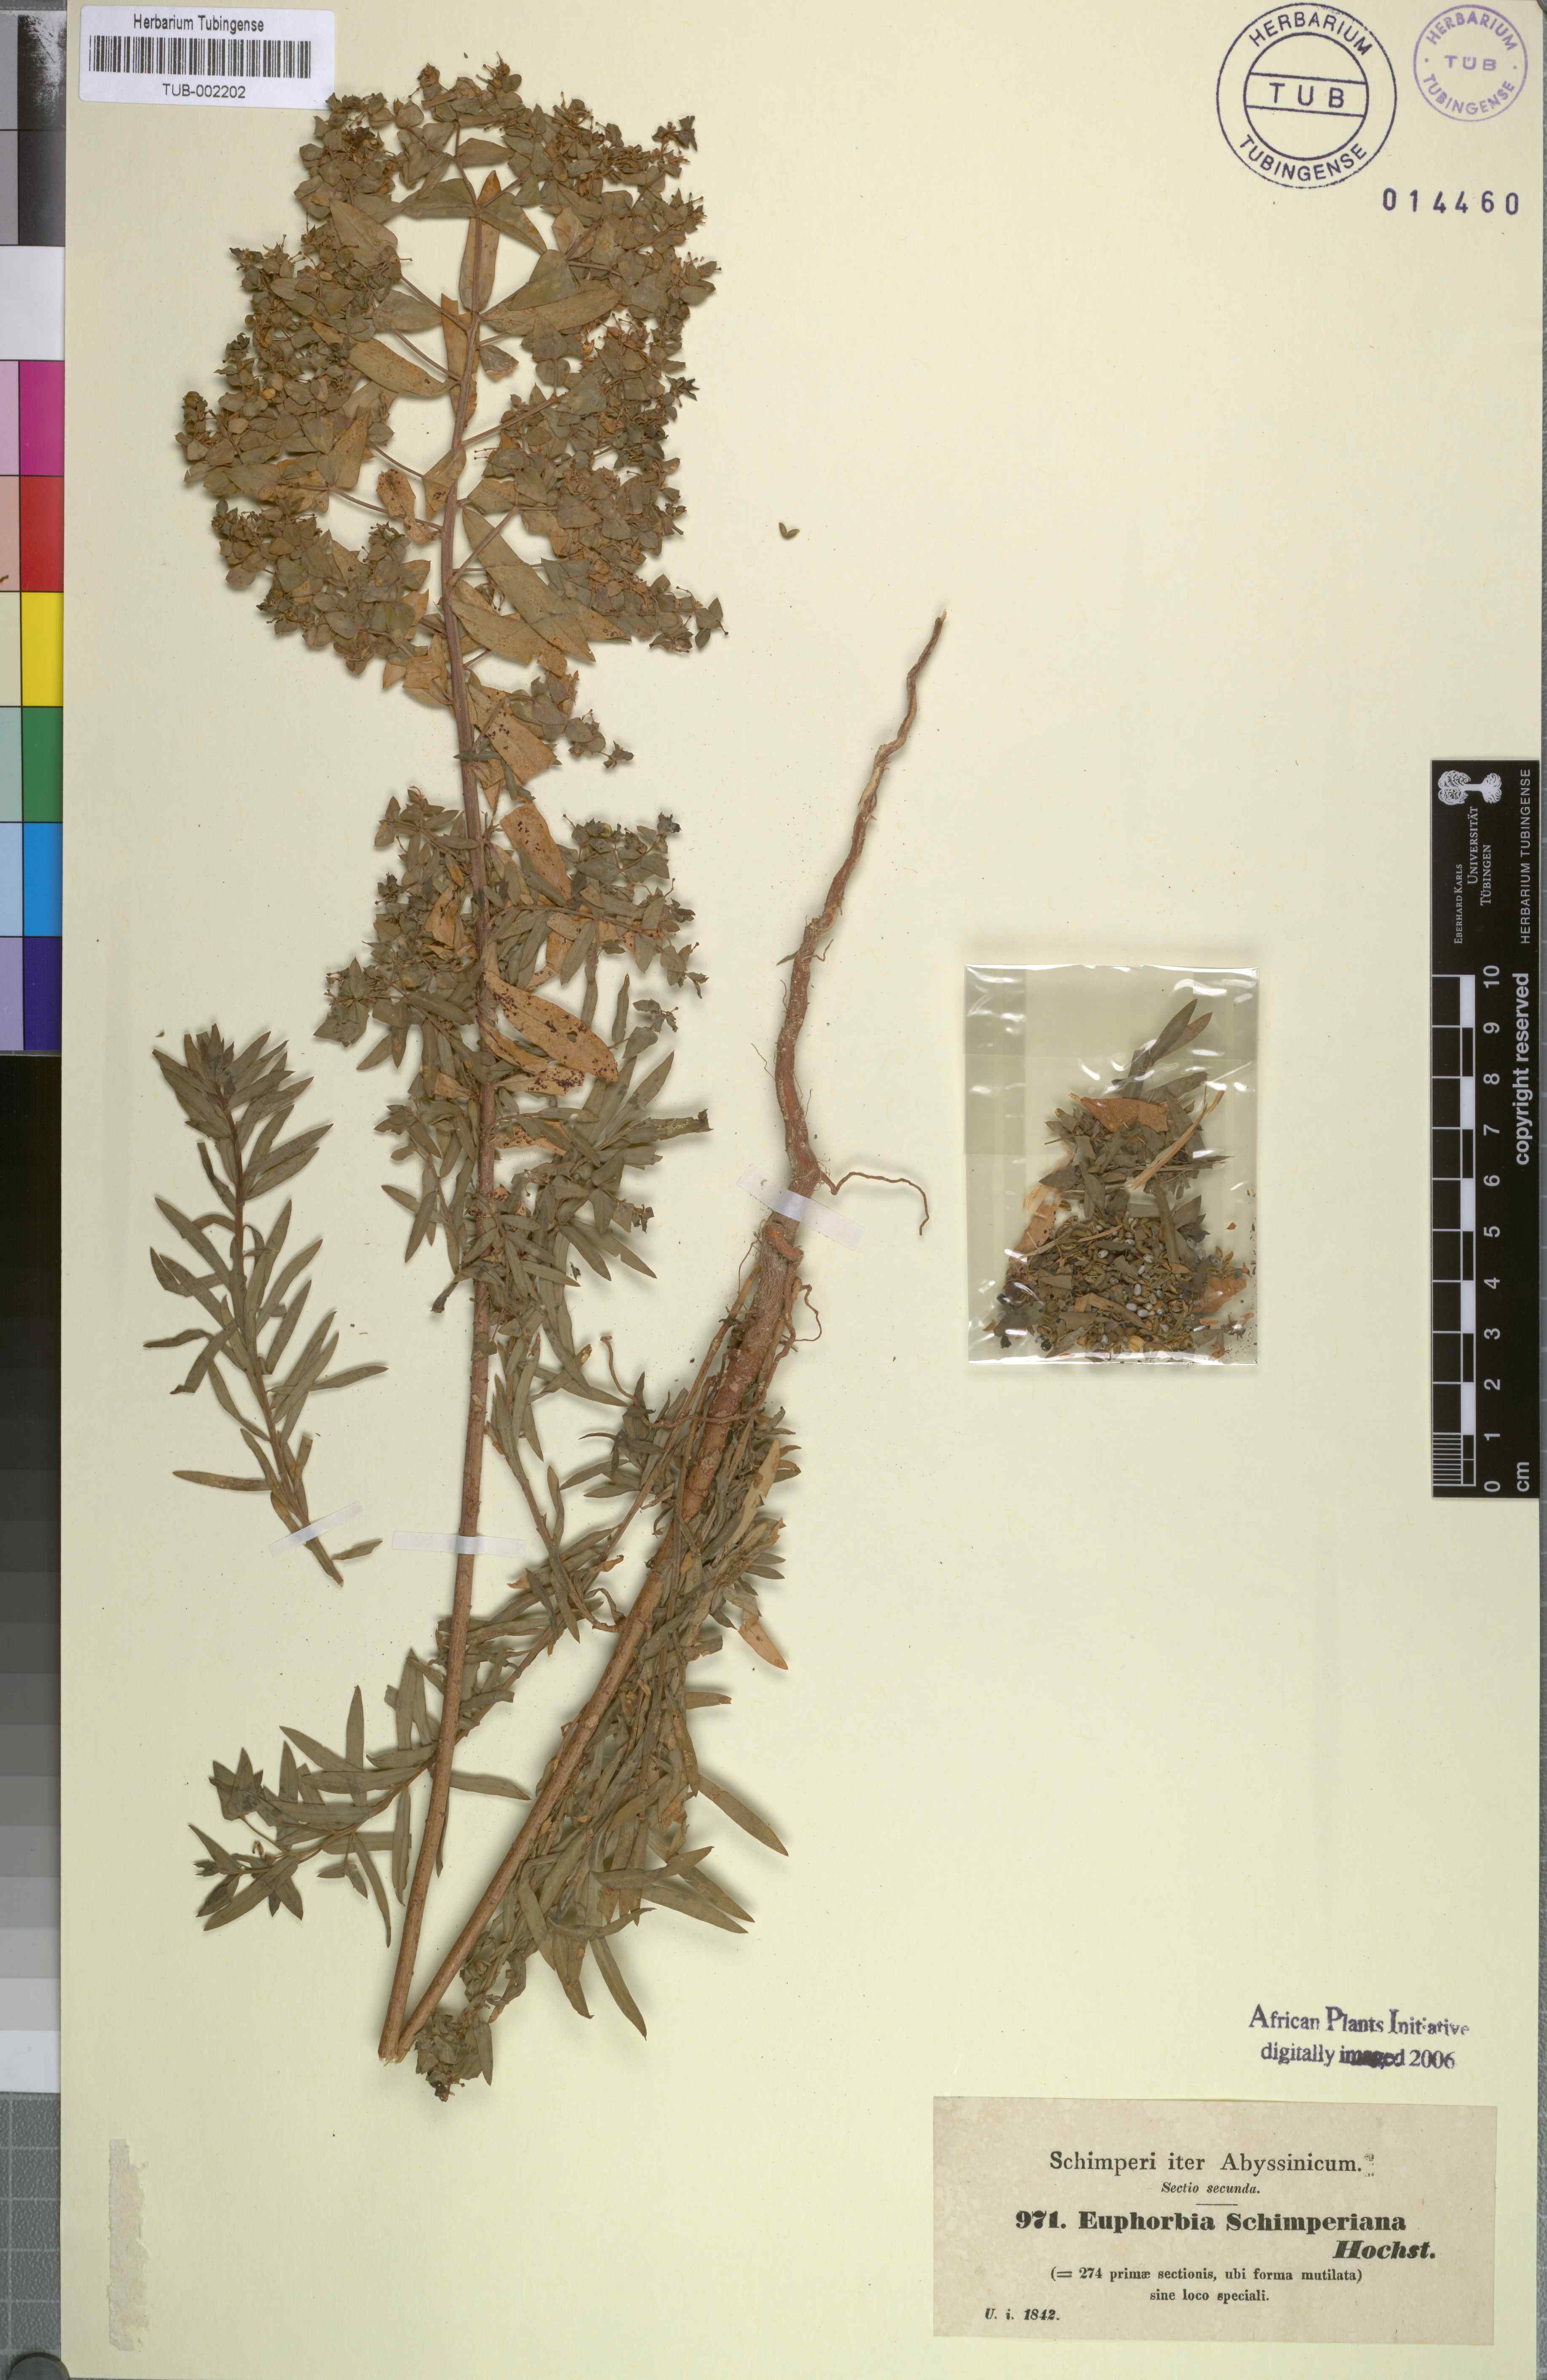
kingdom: Plantae
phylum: Tracheophyta
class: Magnoliopsida
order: Malpighiales
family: Euphorbiaceae
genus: Euphorbia
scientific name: Euphorbia schimperiana
